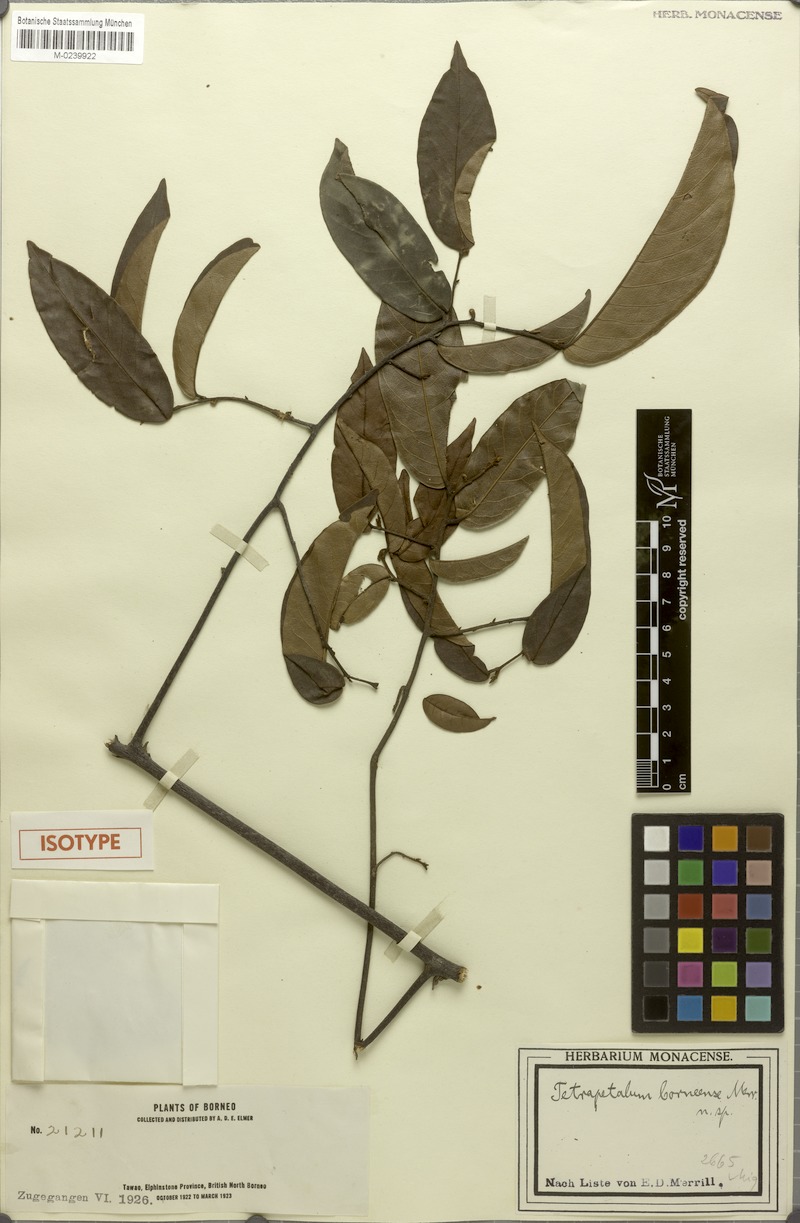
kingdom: Plantae
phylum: Tracheophyta
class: Magnoliopsida
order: Magnoliales
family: Annonaceae
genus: Uvaria
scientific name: Uvaria borneensis
